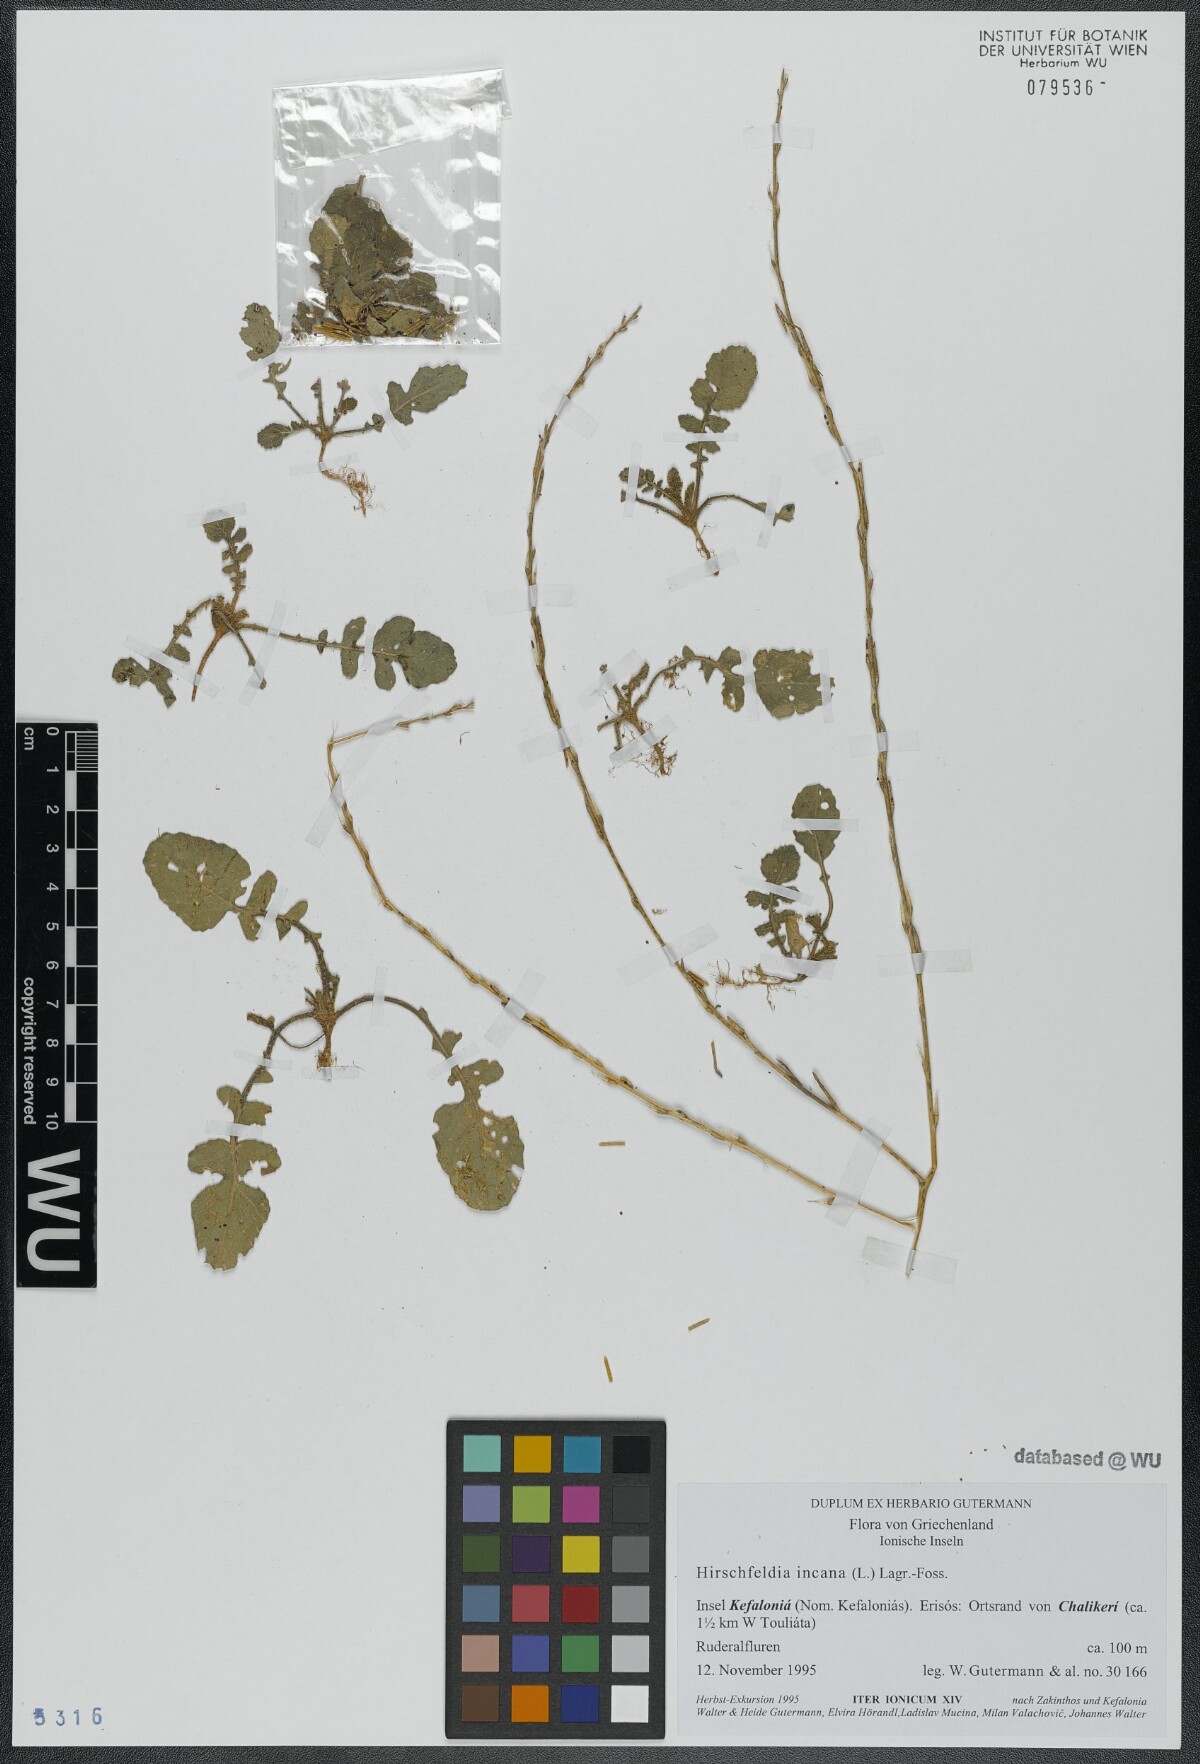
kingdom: Plantae
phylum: Tracheophyta
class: Magnoliopsida
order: Brassicales
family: Brassicaceae
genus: Hirschfeldia
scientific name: Hirschfeldia incana
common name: Hoary mustard
